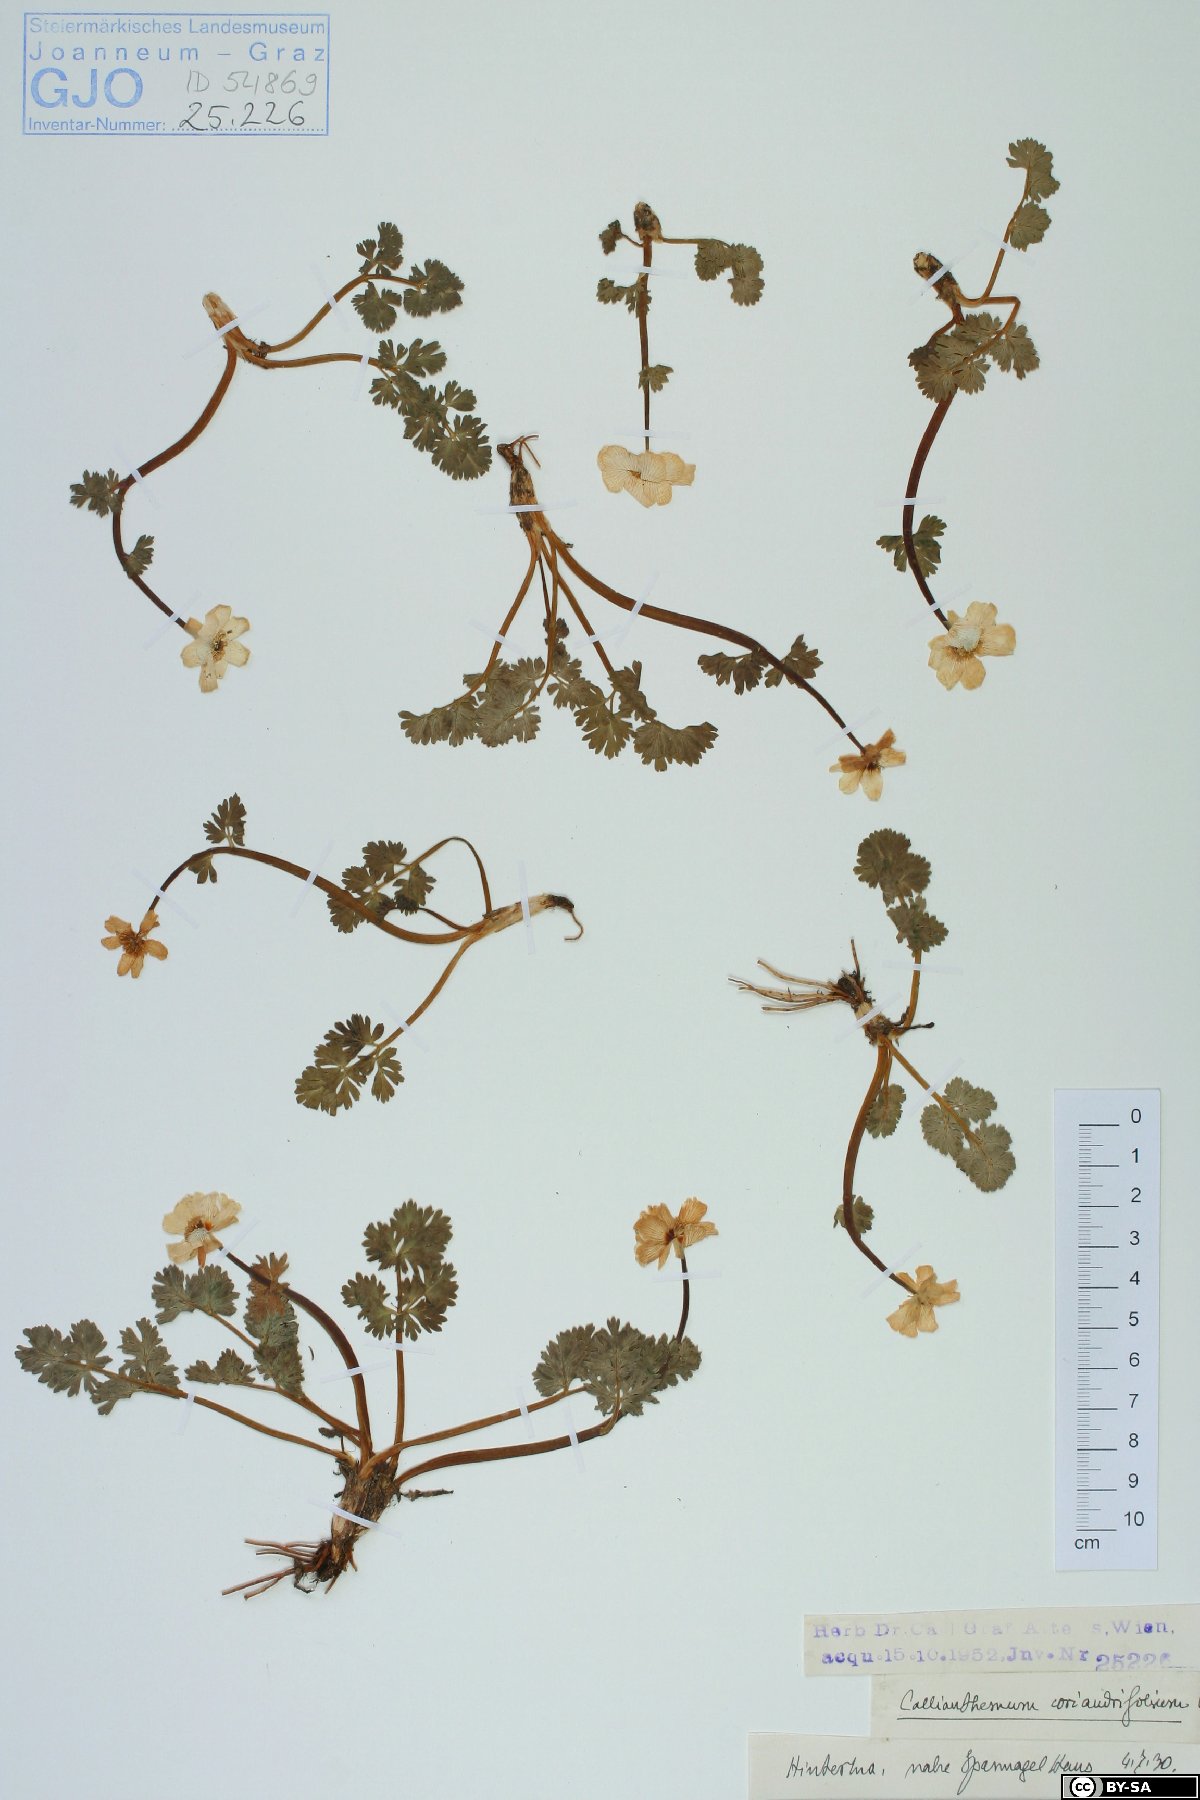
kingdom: Plantae
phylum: Tracheophyta
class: Magnoliopsida
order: Ranunculales
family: Ranunculaceae
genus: Callianthemum
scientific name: Callianthemum coriandrifolium
